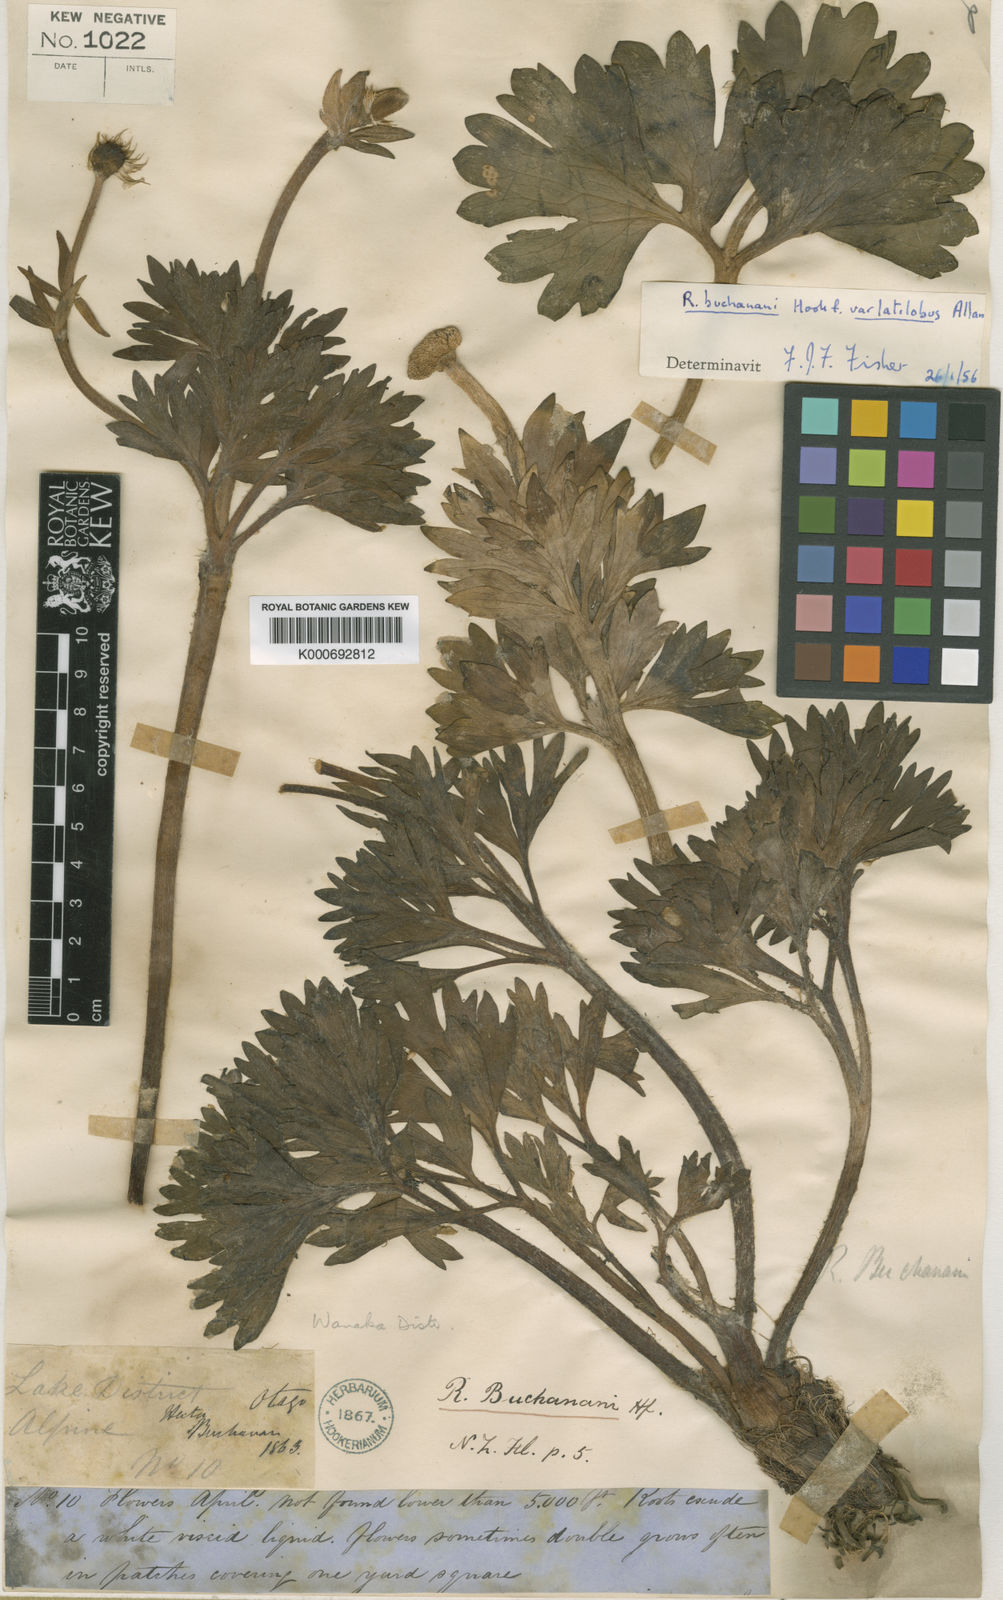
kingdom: Plantae
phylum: Tracheophyta
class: Magnoliopsida
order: Ranunculales
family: Ranunculaceae
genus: Ranunculus
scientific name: Ranunculus buchananii
